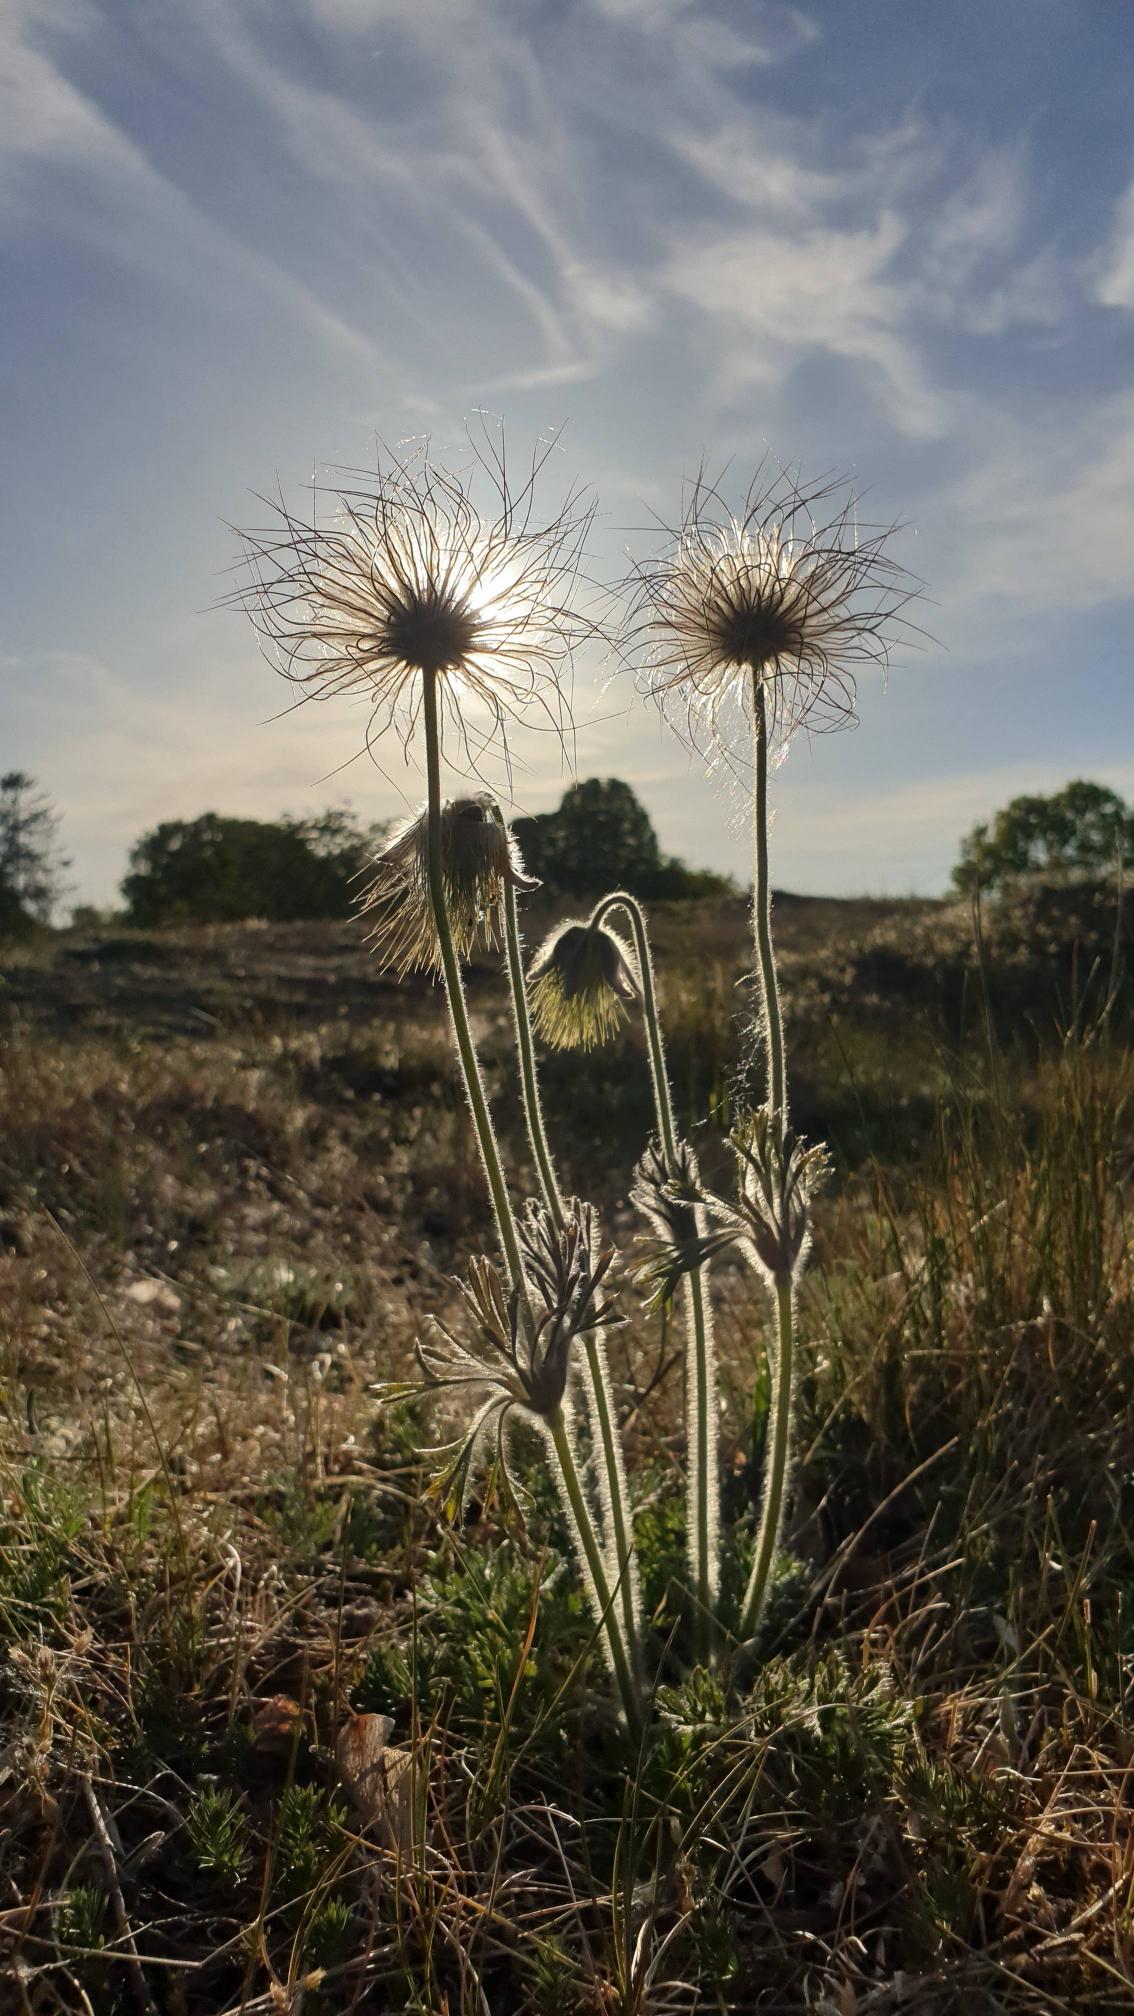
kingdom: Plantae
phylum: Tracheophyta
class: Magnoliopsida
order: Ranunculales
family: Ranunculaceae
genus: Pulsatilla
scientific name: Pulsatilla pratensis
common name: Nikkende kobjælde
